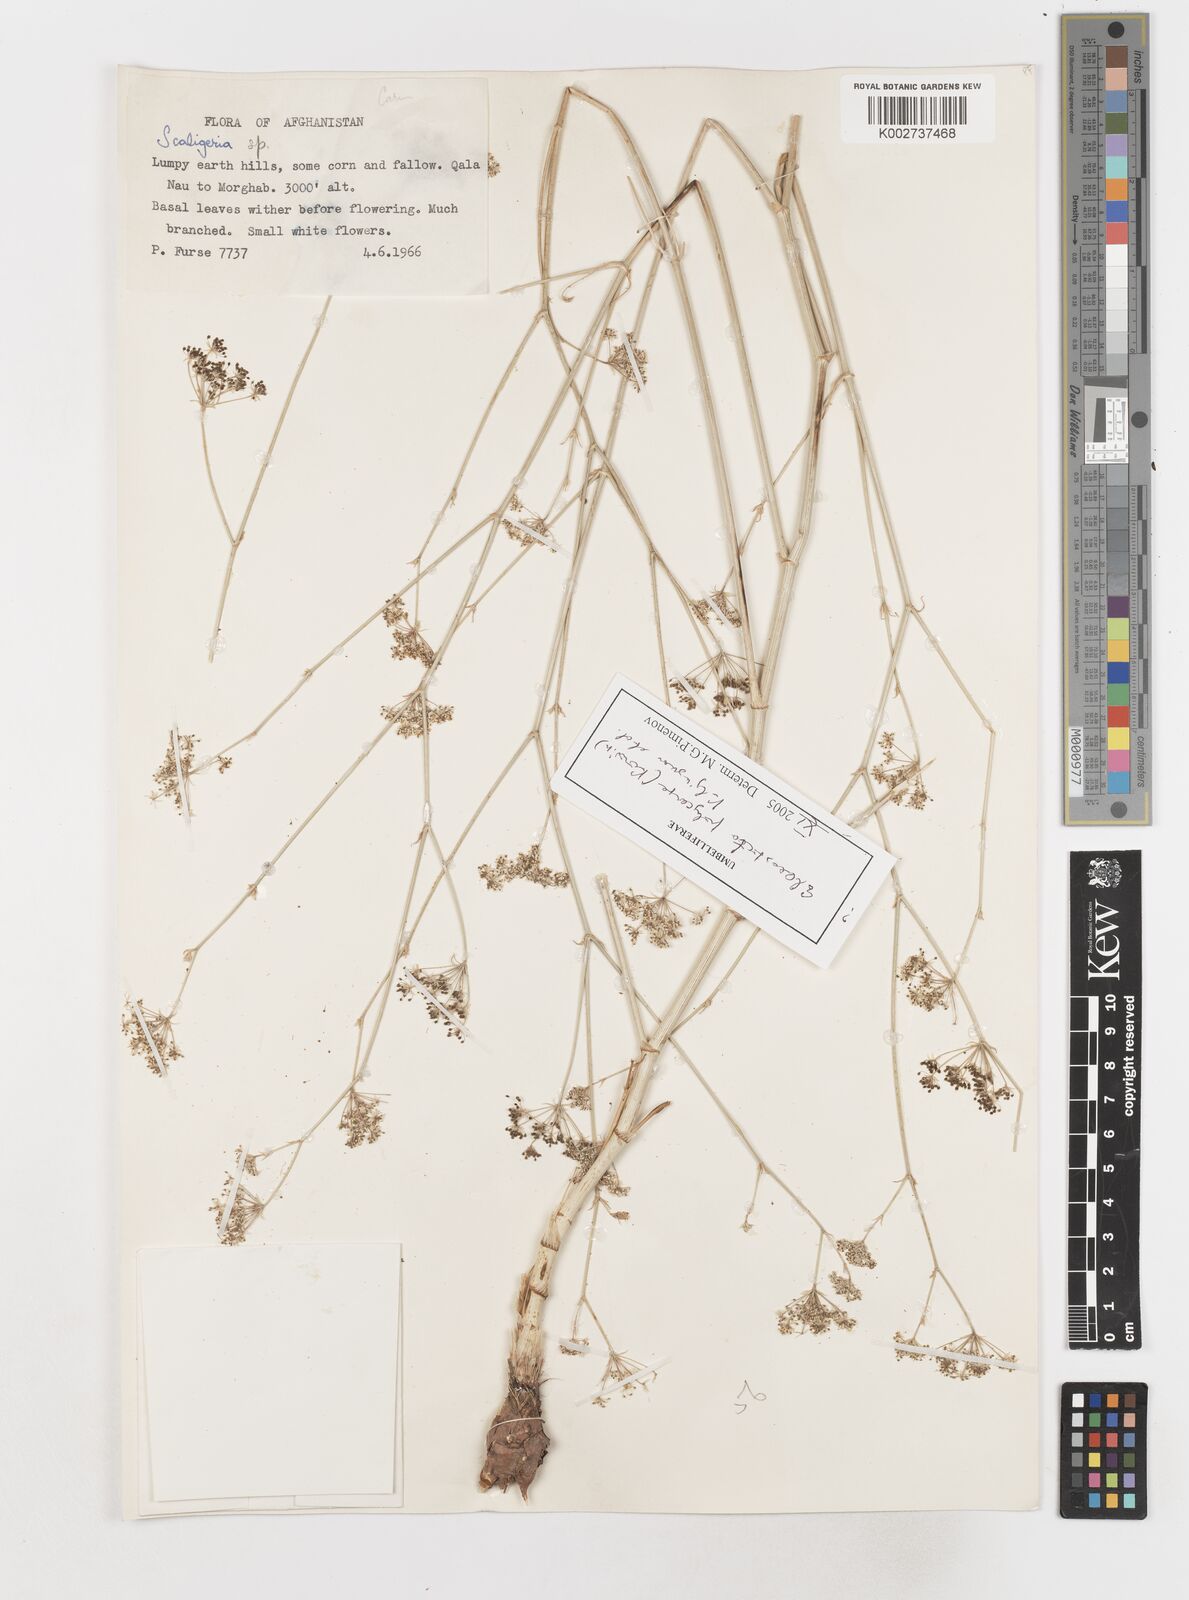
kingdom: Plantae
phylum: Tracheophyta
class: Magnoliopsida
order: Apiales
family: Apiaceae
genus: Scaligeria
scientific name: Scaligeria
